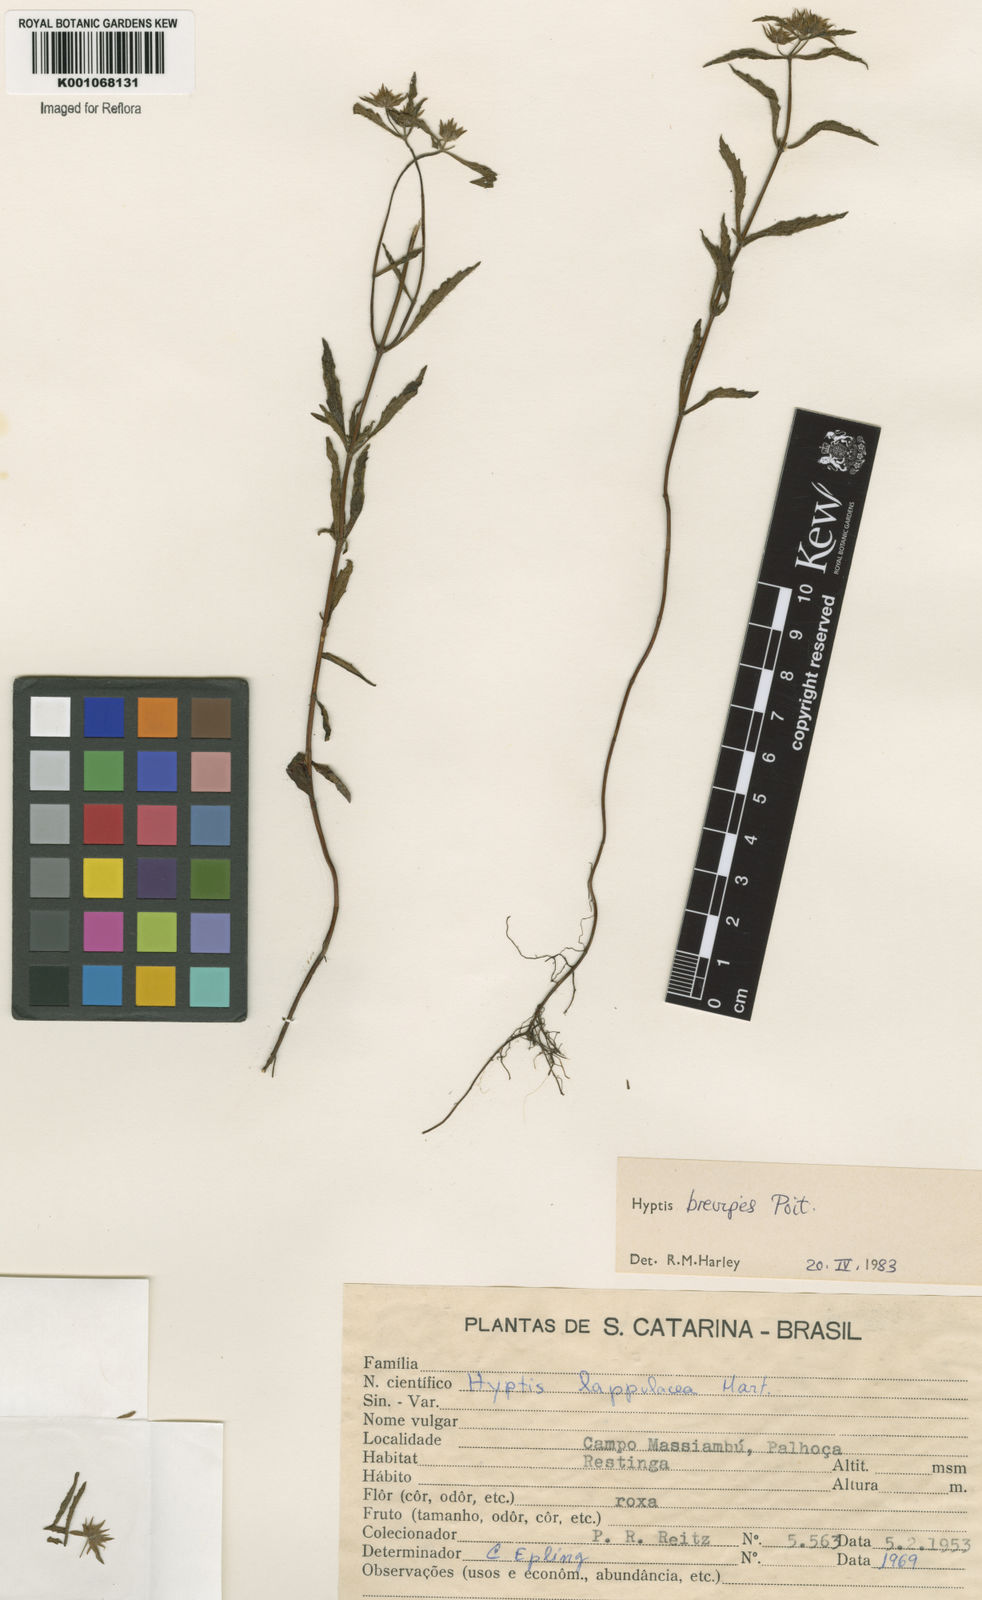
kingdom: Plantae
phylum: Tracheophyta
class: Magnoliopsida
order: Lamiales
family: Lamiaceae
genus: Hyptis
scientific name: Hyptis brevipes
